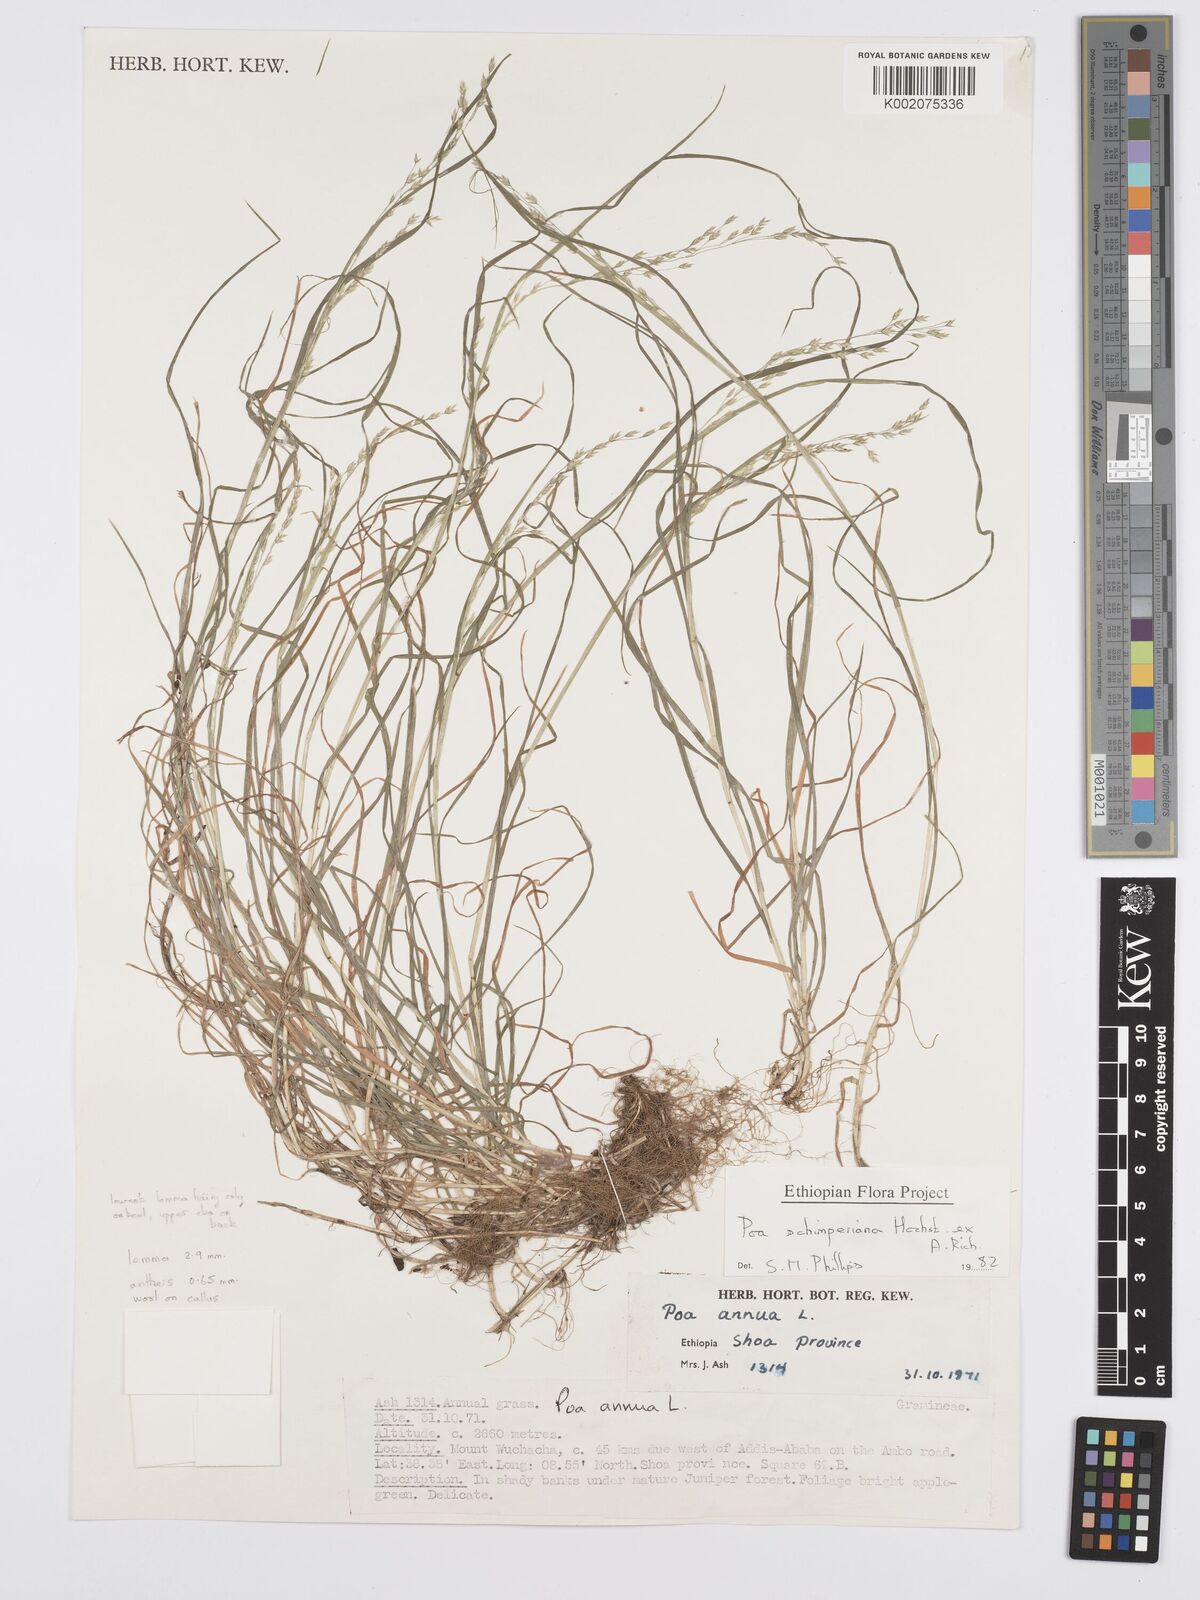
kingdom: Plantae
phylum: Tracheophyta
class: Liliopsida
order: Poales
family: Poaceae
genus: Poa
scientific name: Poa schimperiana
